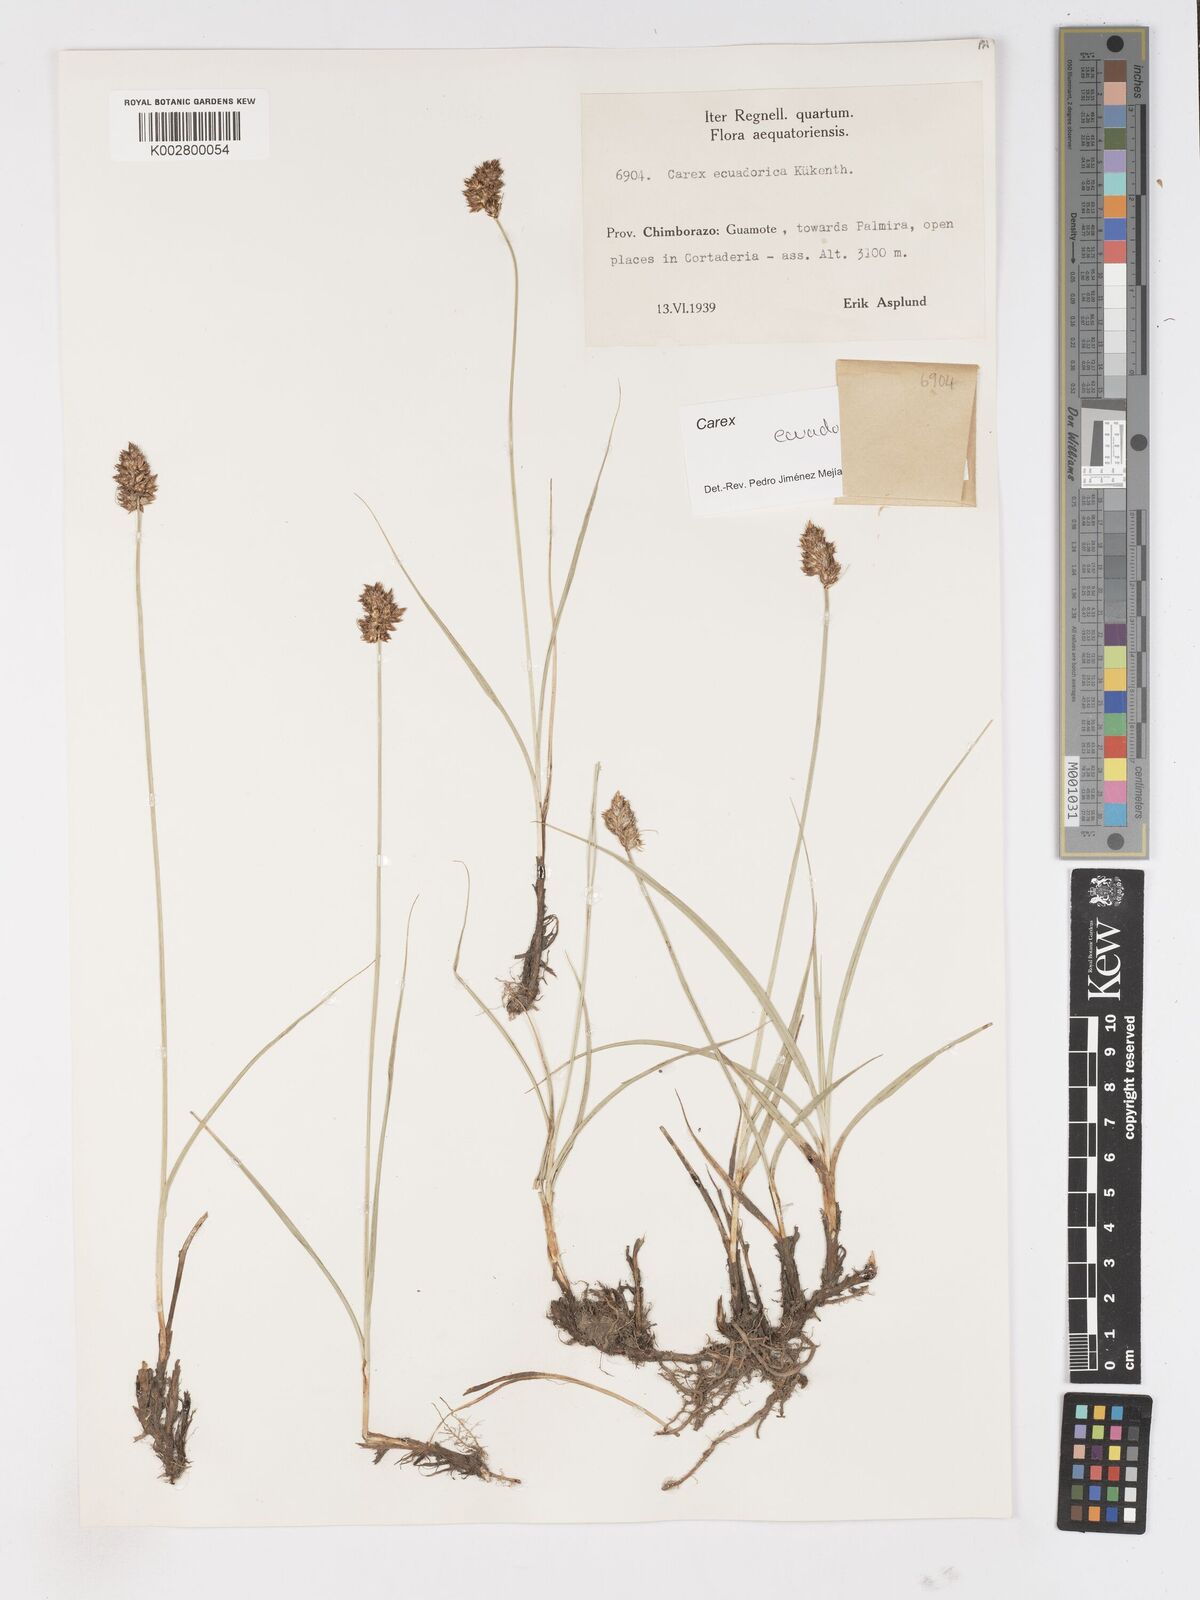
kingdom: Plantae
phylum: Tracheophyta
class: Liliopsida
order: Poales
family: Cyperaceae
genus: Carex
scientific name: Carex ecuadorica
